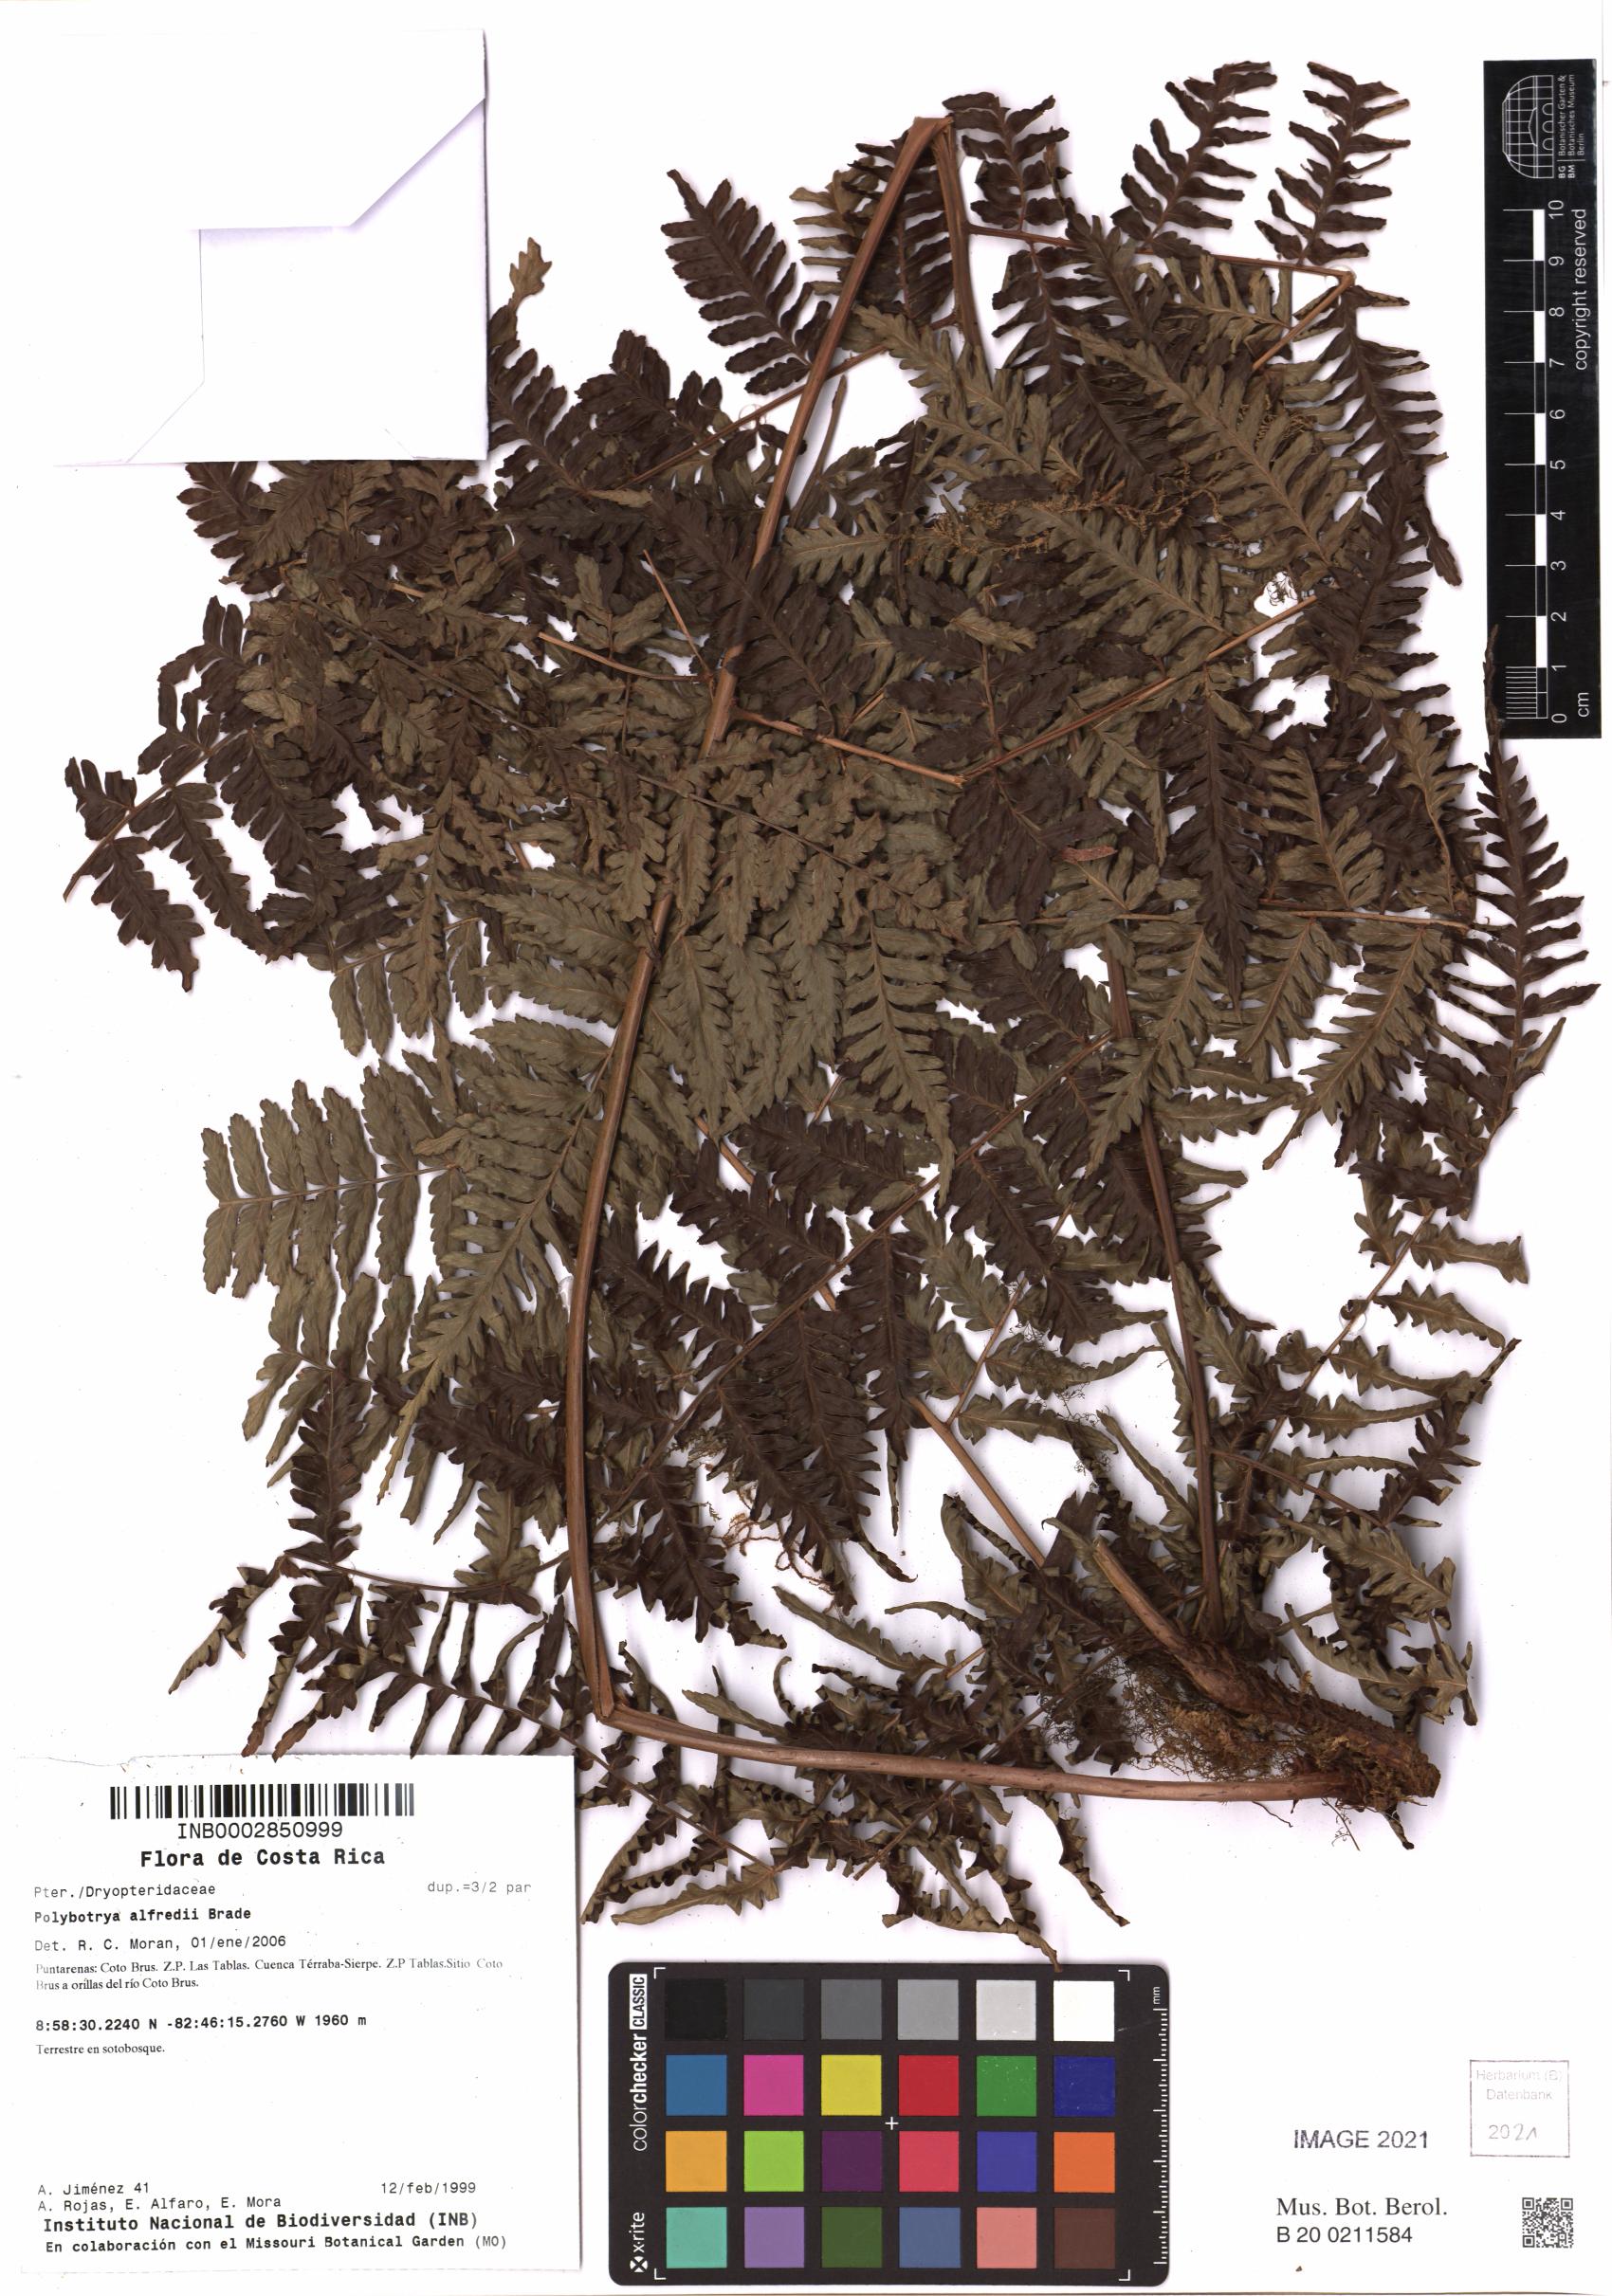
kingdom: Plantae
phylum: Tracheophyta
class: Polypodiopsida
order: Polypodiales
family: Dryopteridaceae
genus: Polybotrya
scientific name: Polybotrya alfredii
